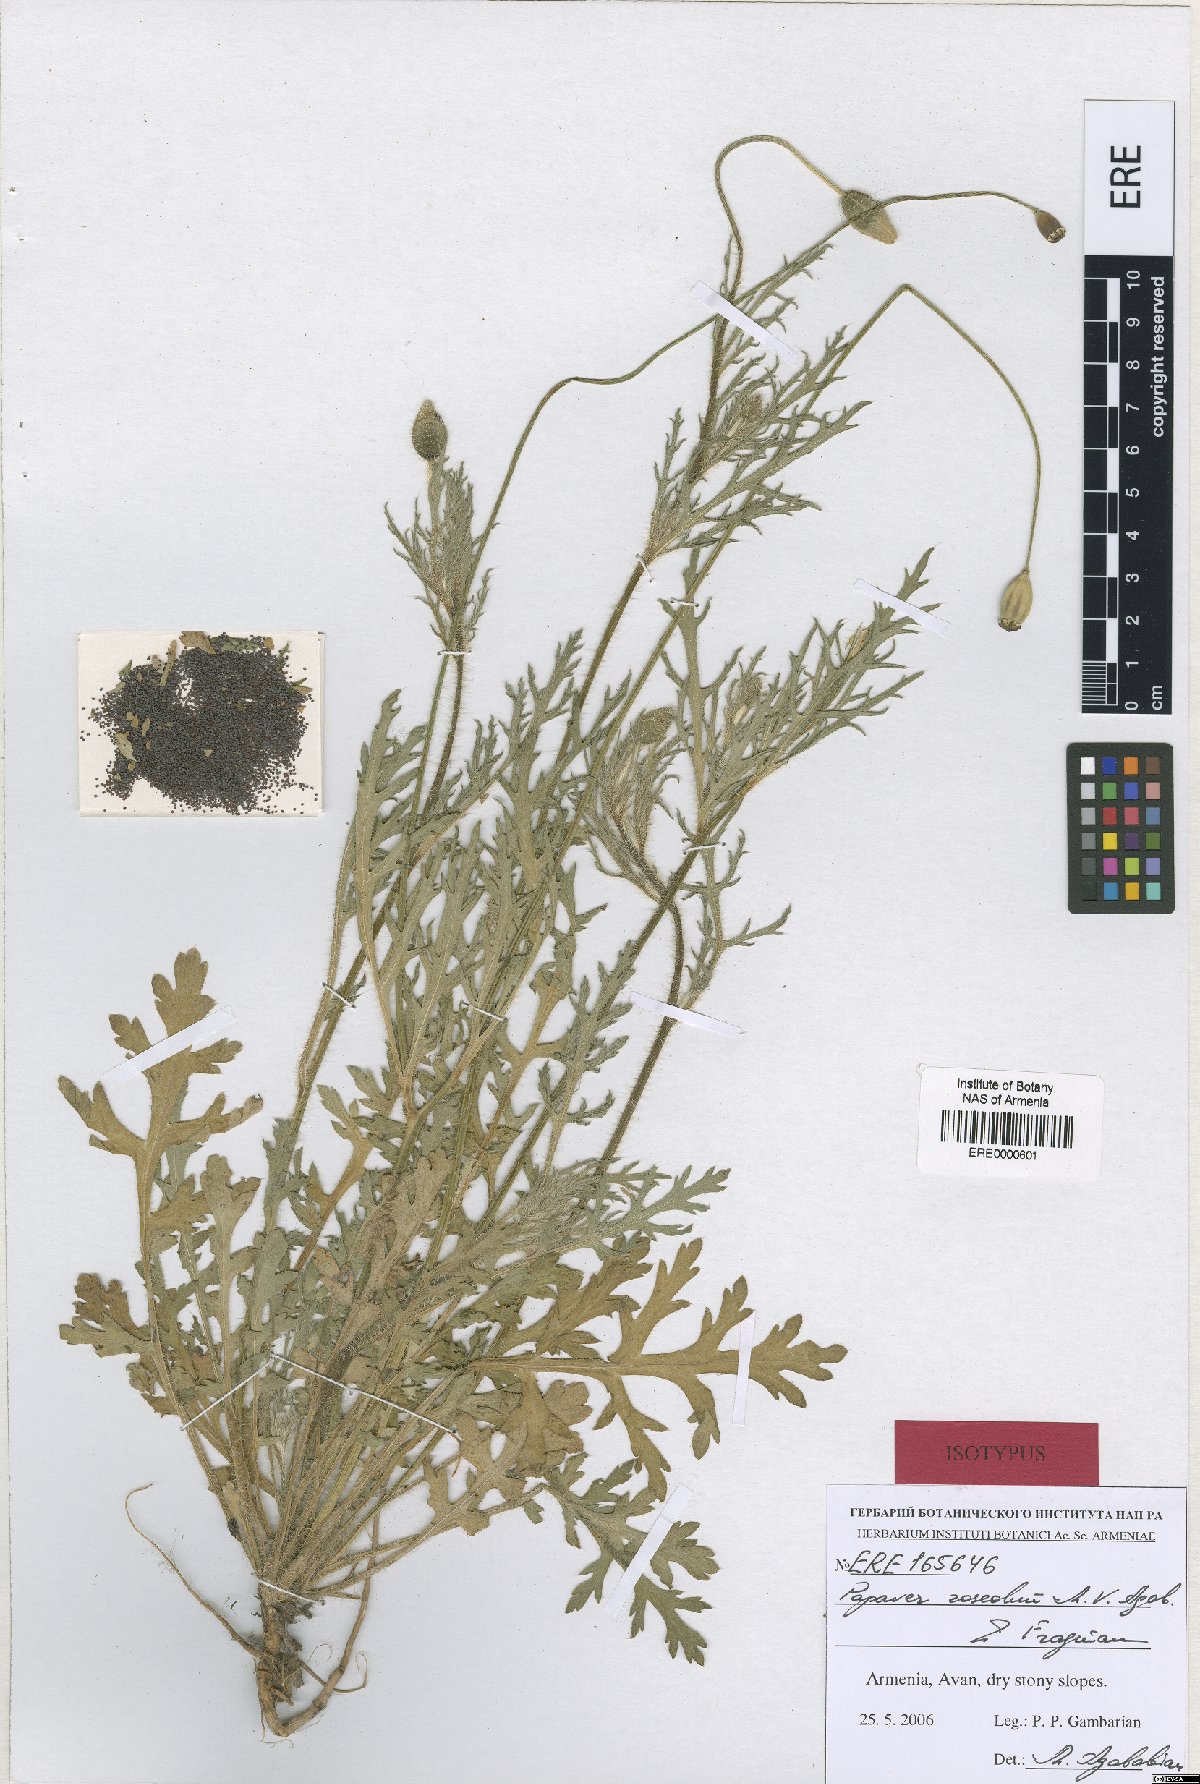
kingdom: Plantae
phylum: Tracheophyta
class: Magnoliopsida
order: Ranunculales
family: Papaveraceae
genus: Papaver
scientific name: Papaver roseolum
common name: Pinkish poppy
